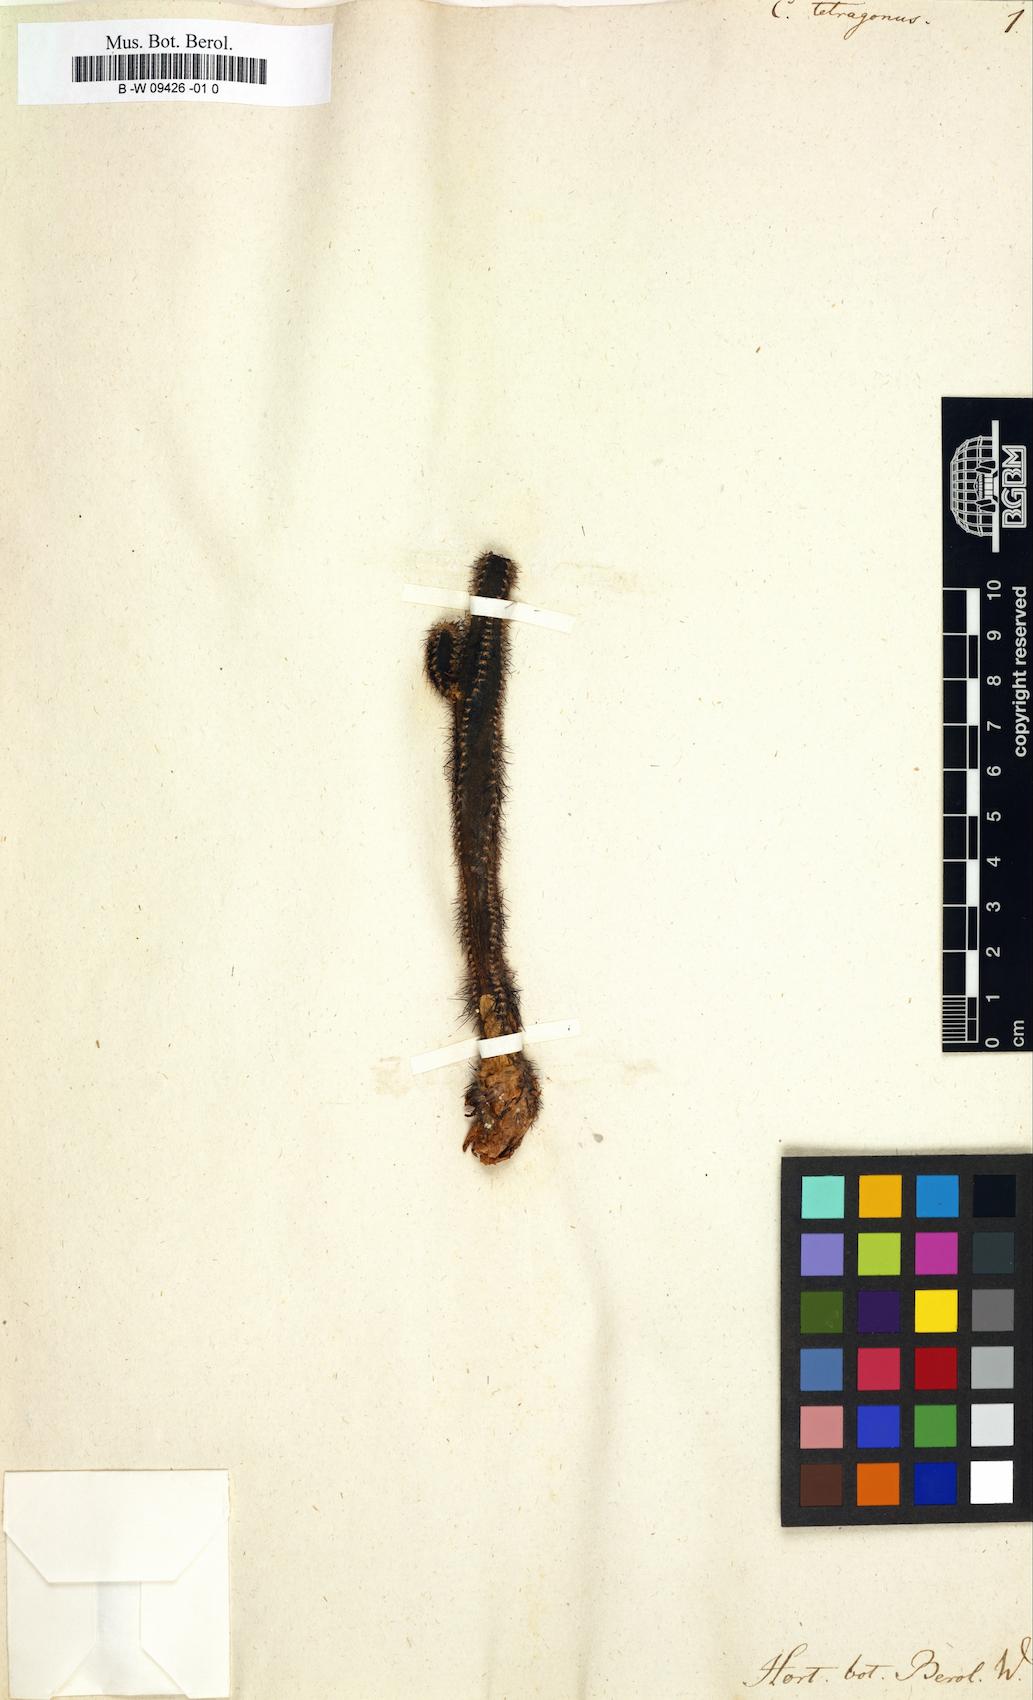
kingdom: Plantae
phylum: Tracheophyta
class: Magnoliopsida
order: Caryophyllales
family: Cactaceae
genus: Acanthocereus
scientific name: Acanthocereus tetragonus
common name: Triangle cactus
